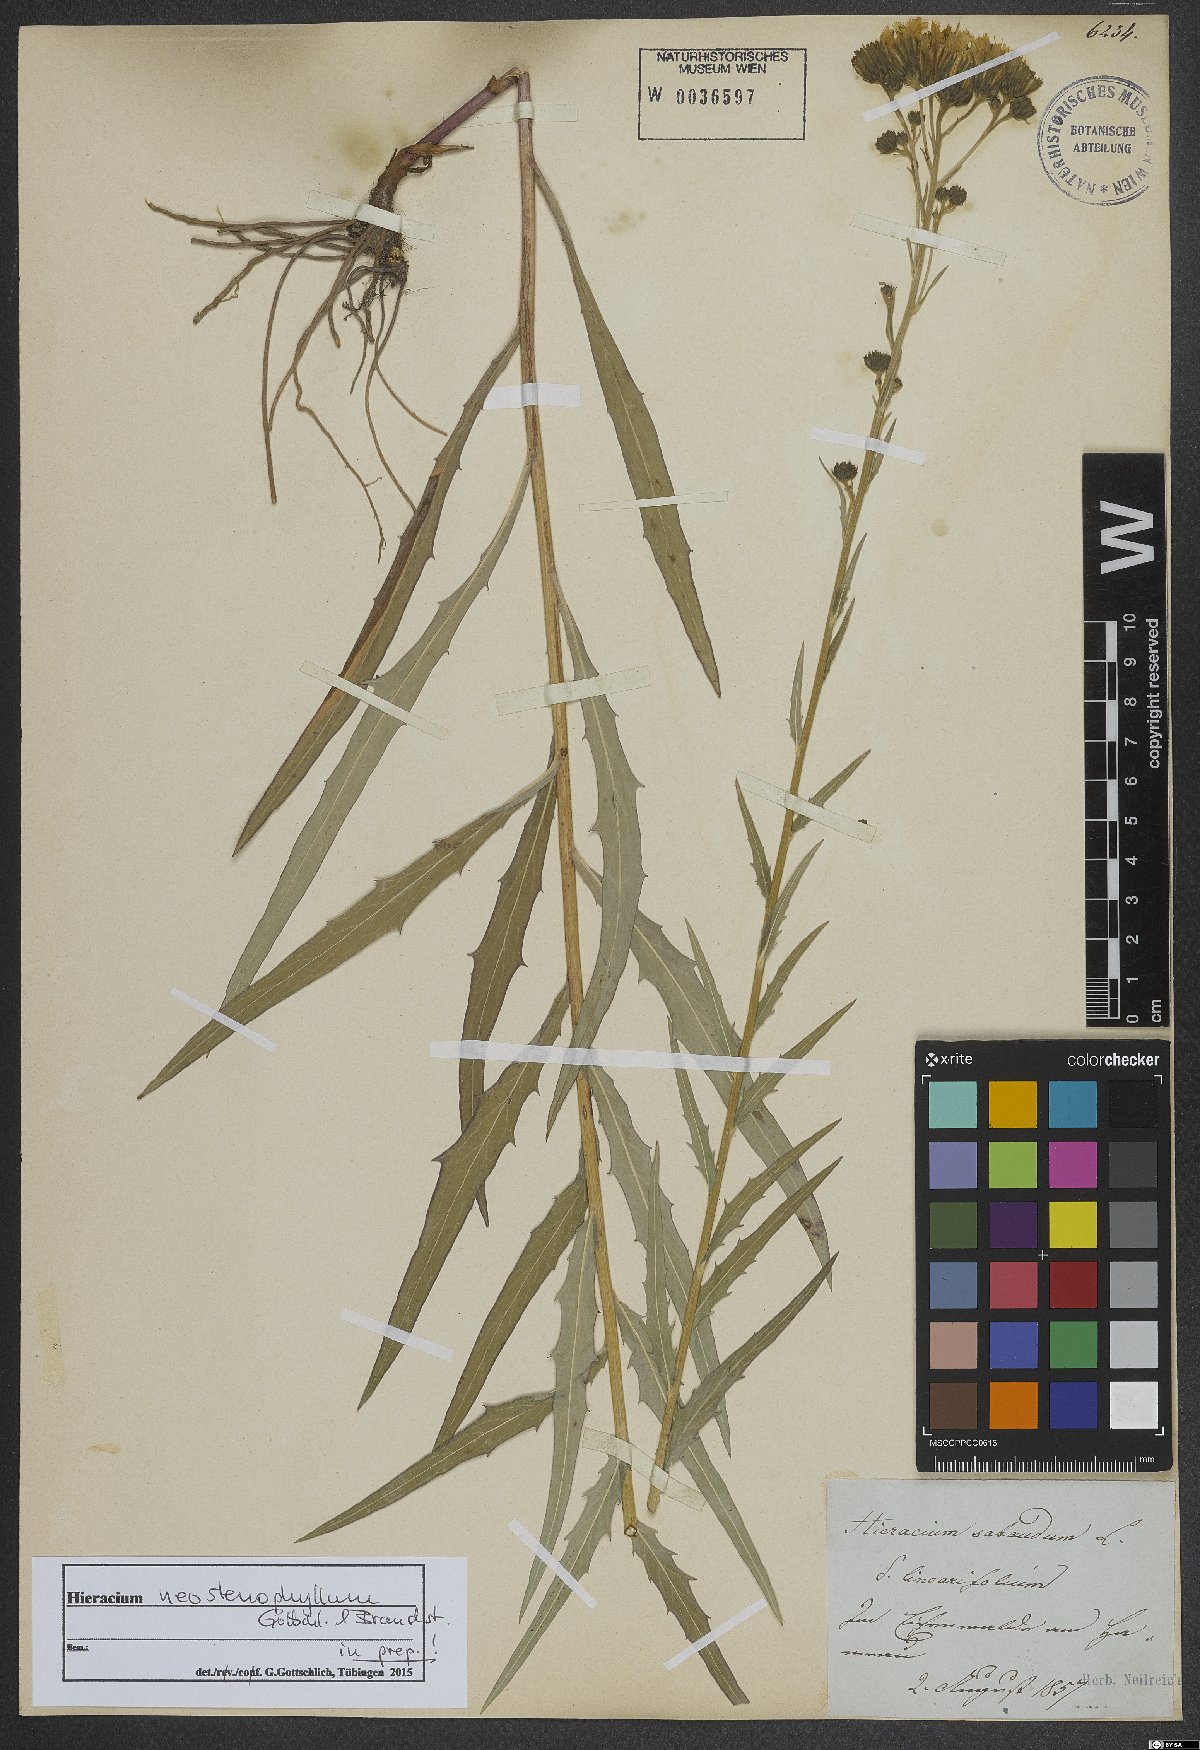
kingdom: Plantae
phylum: Tracheophyta
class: Magnoliopsida
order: Asterales
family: Asteraceae
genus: Hieracium
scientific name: Hieracium neostenophyllum
